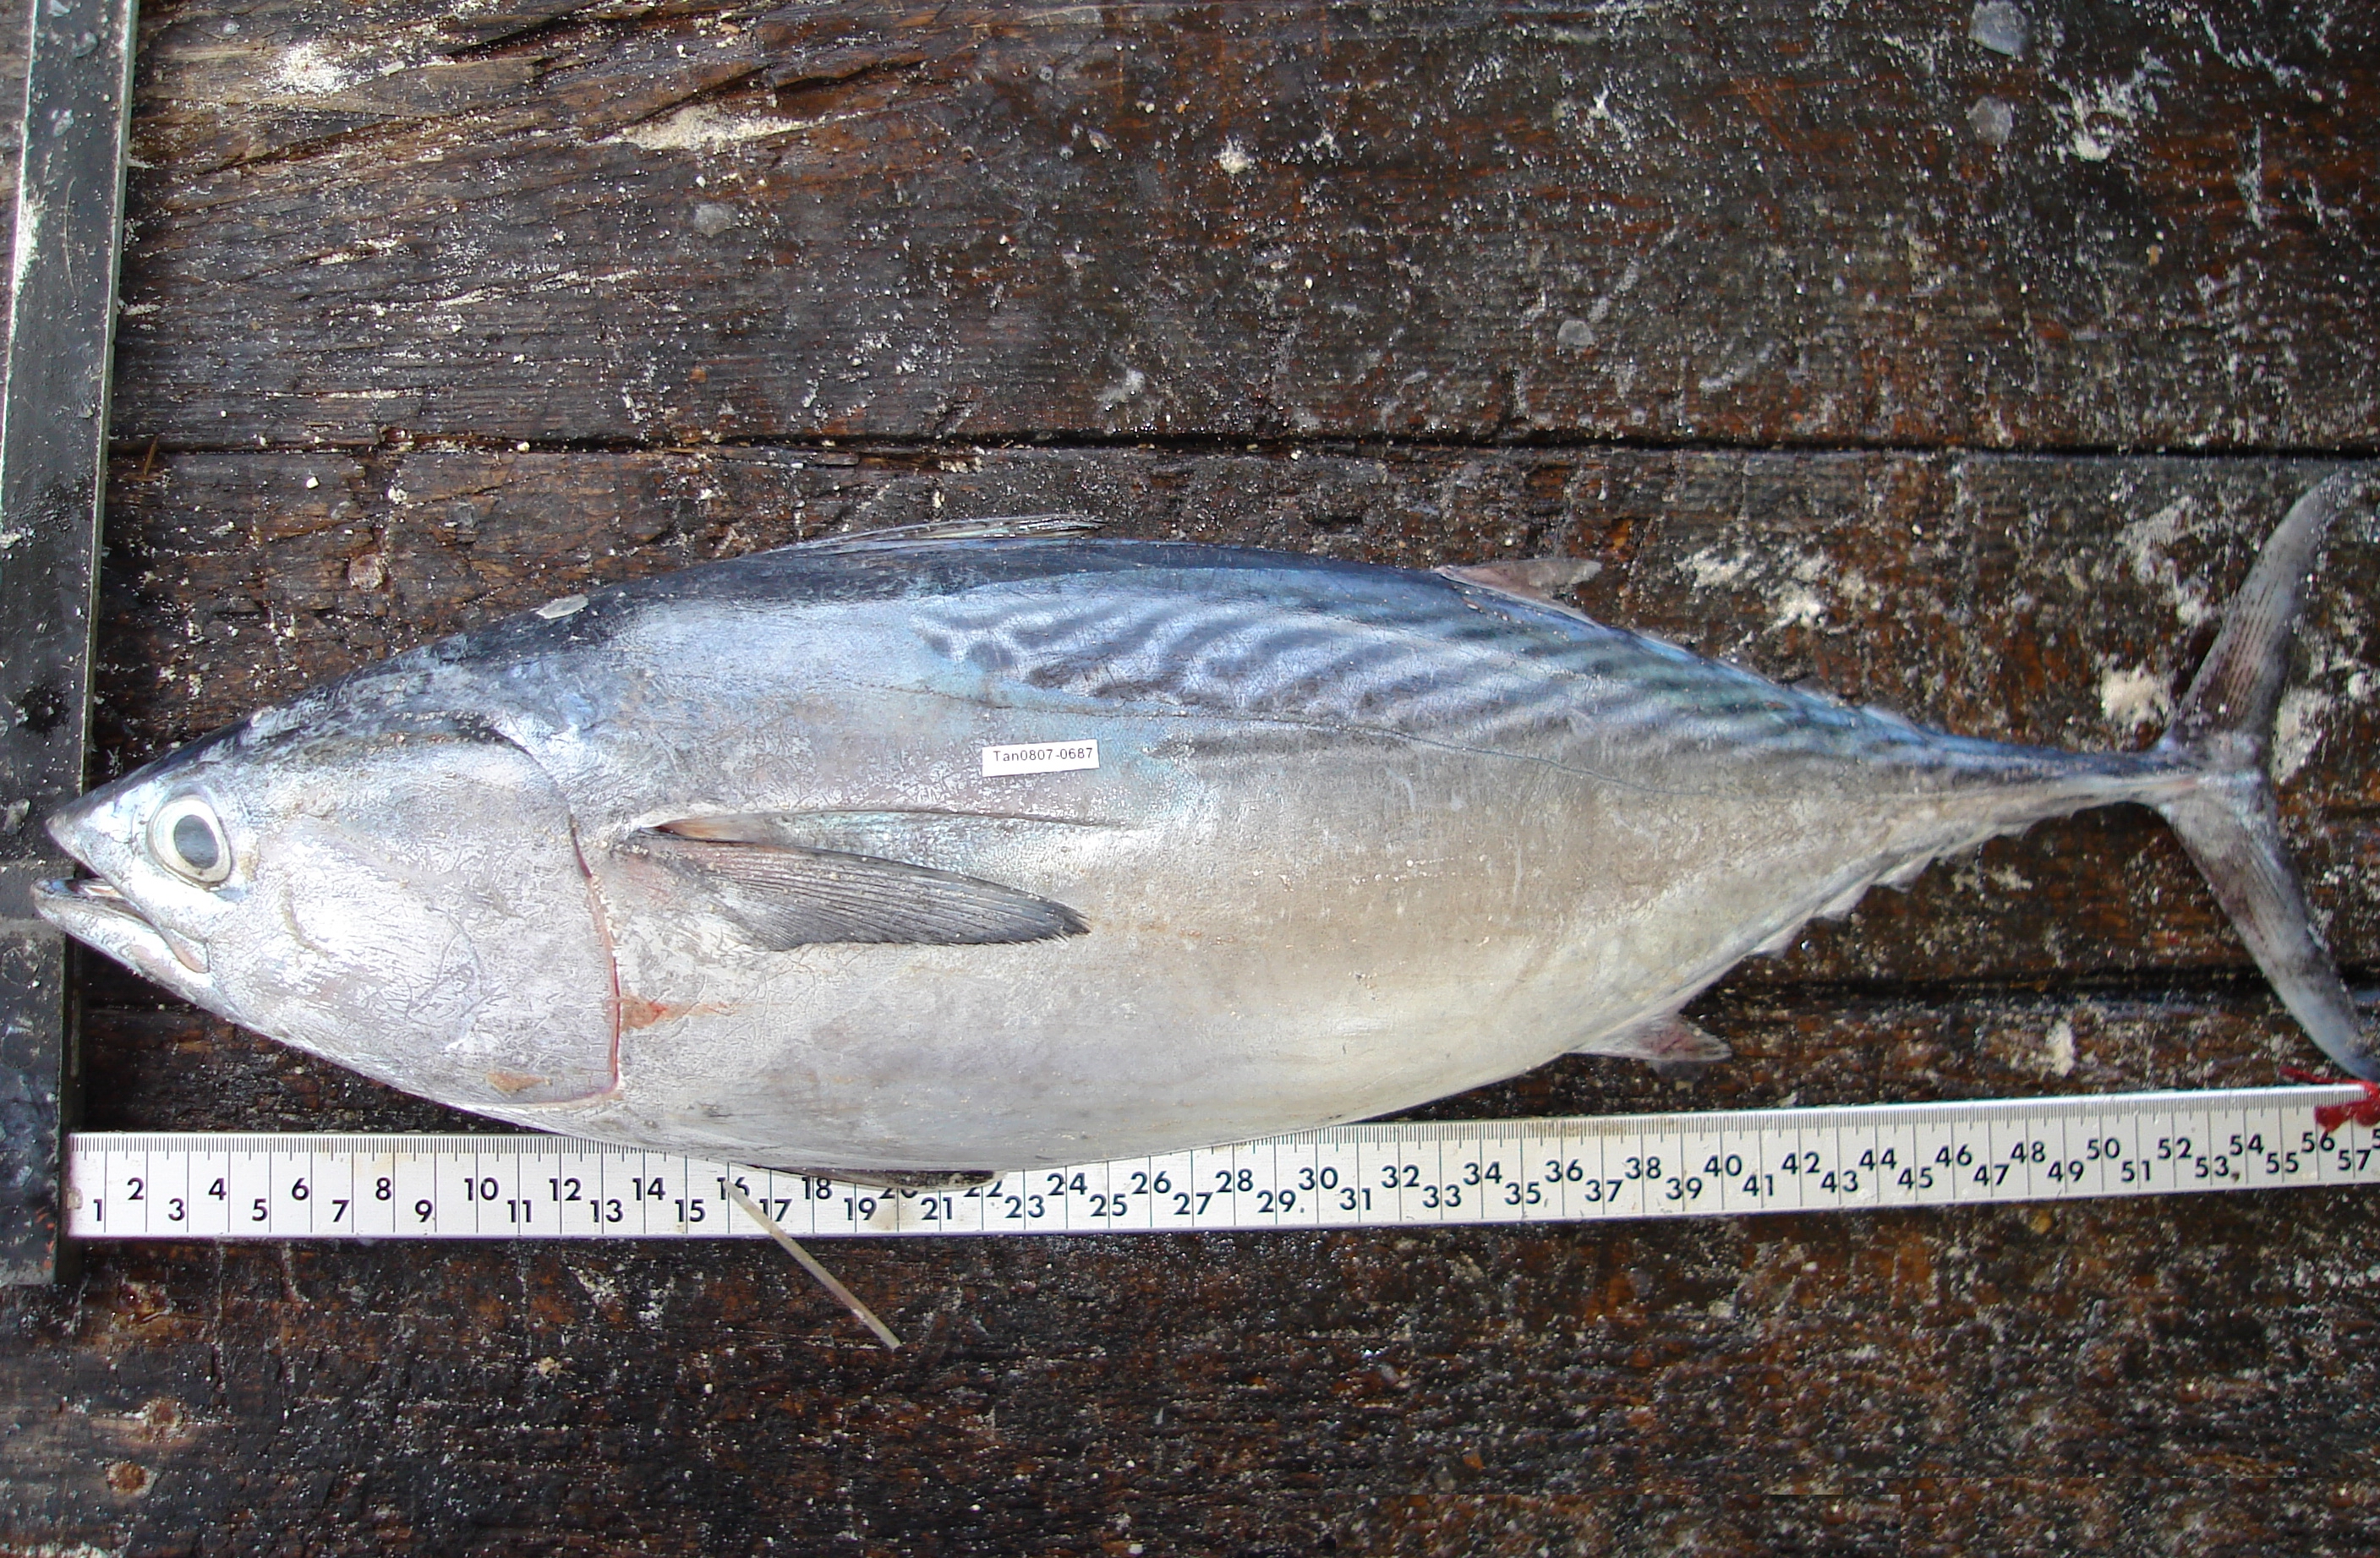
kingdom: Animalia
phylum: Chordata
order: Perciformes
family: Scombridae
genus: Euthynnus
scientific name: Euthynnus affinis
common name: Mackerel tuna
